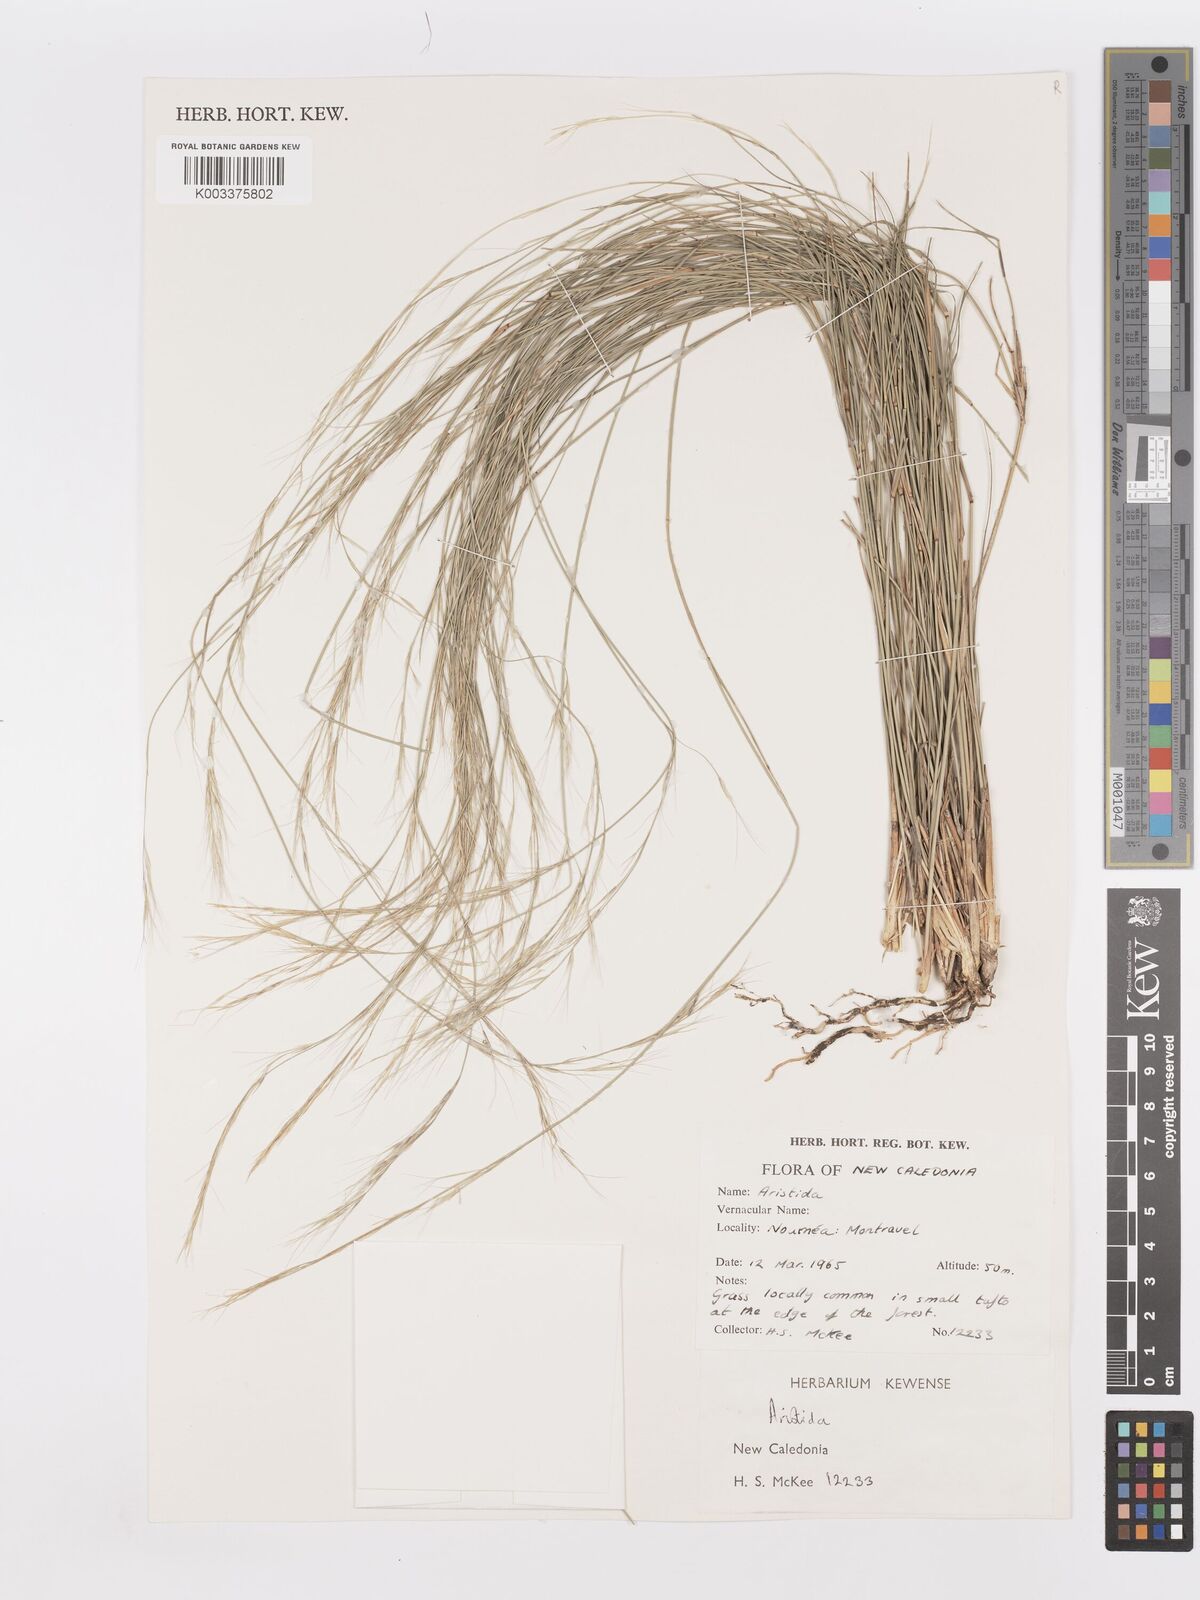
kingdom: Plantae
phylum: Tracheophyta
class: Liliopsida
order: Poales
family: Poaceae
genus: Aristida
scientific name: Aristida ramosa
